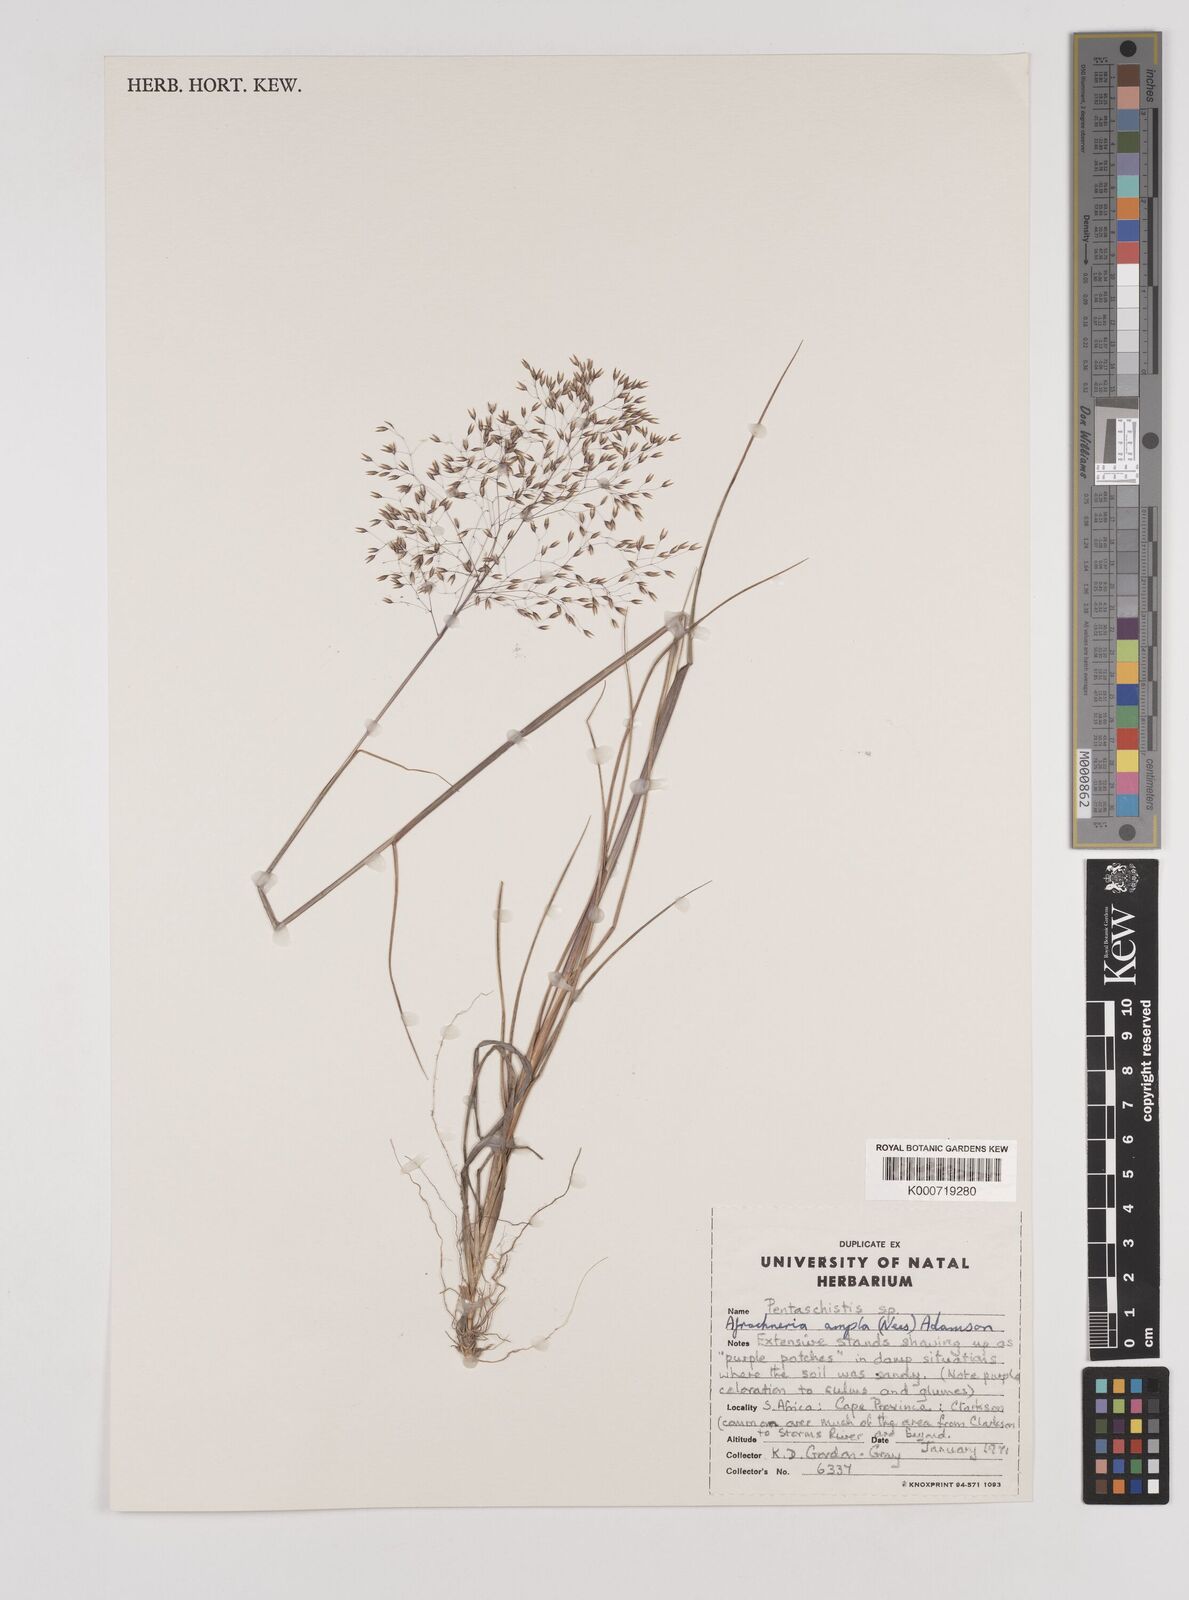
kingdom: Plantae
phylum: Tracheophyta
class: Liliopsida
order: Poales
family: Poaceae
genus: Pentameris
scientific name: Pentameris ampla
